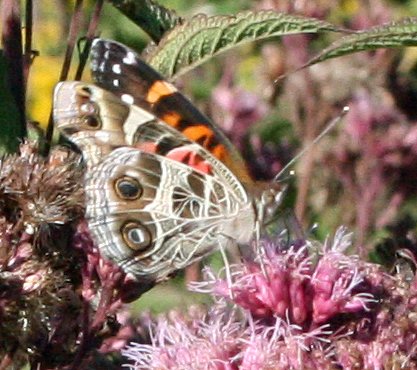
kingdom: Animalia
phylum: Arthropoda
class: Insecta
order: Lepidoptera
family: Nymphalidae
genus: Vanessa
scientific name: Vanessa virginiensis
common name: American Lady
